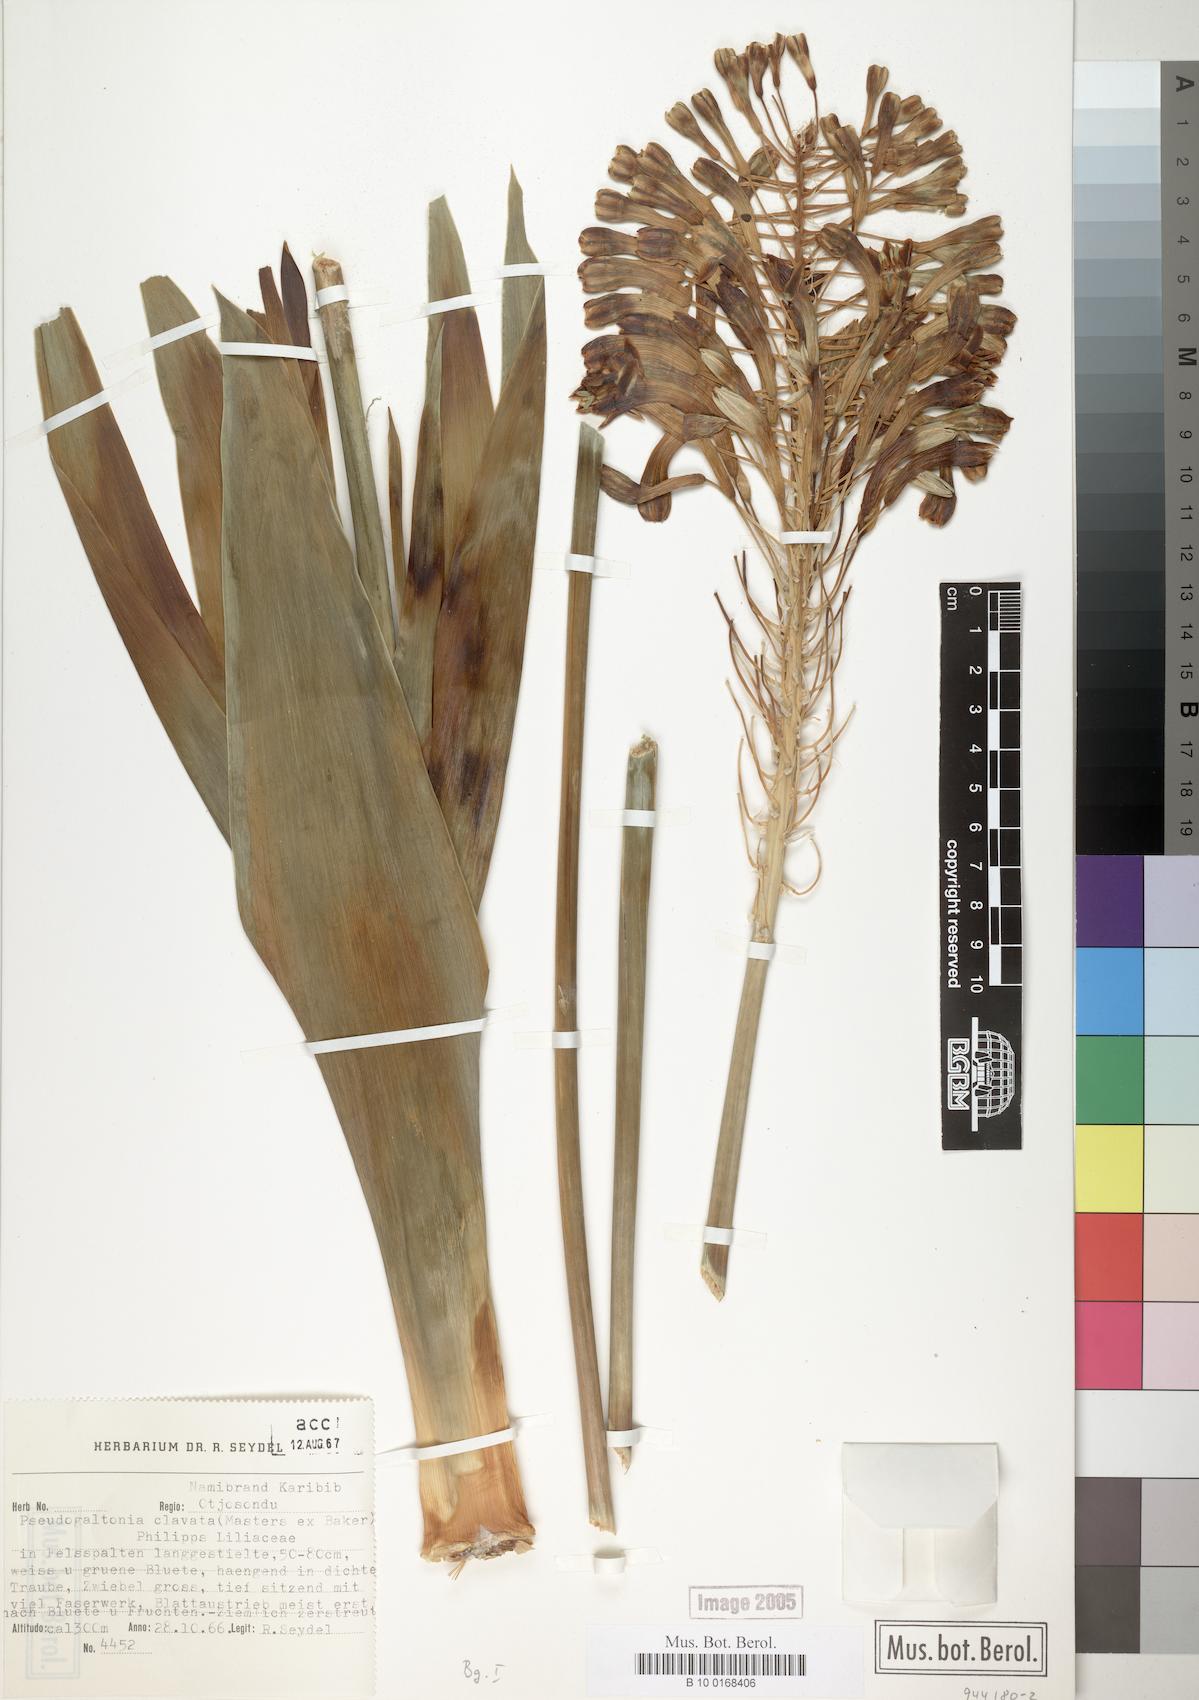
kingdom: Plantae
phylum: Tracheophyta
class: Liliopsida
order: Asparagales
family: Asparagaceae
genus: Pseudogaltonia
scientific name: Pseudogaltonia clavata
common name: South west african slangkop
